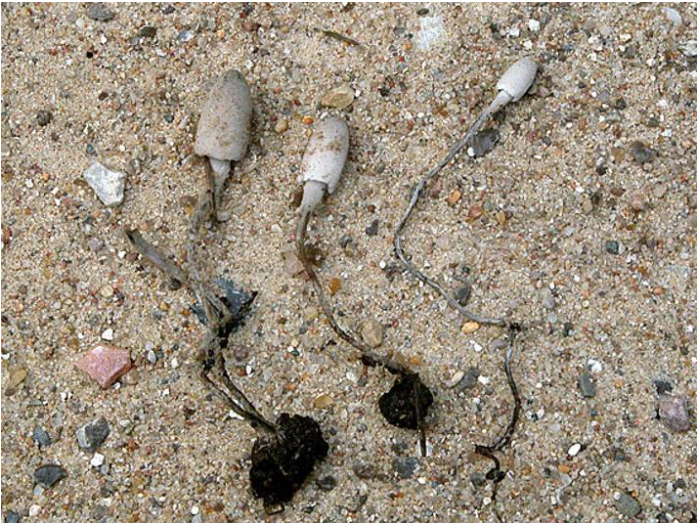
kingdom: Fungi
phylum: Basidiomycota
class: Agaricomycetes
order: Agaricales
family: Psathyrellaceae
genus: Coprinopsis
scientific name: Coprinopsis tuberosa
